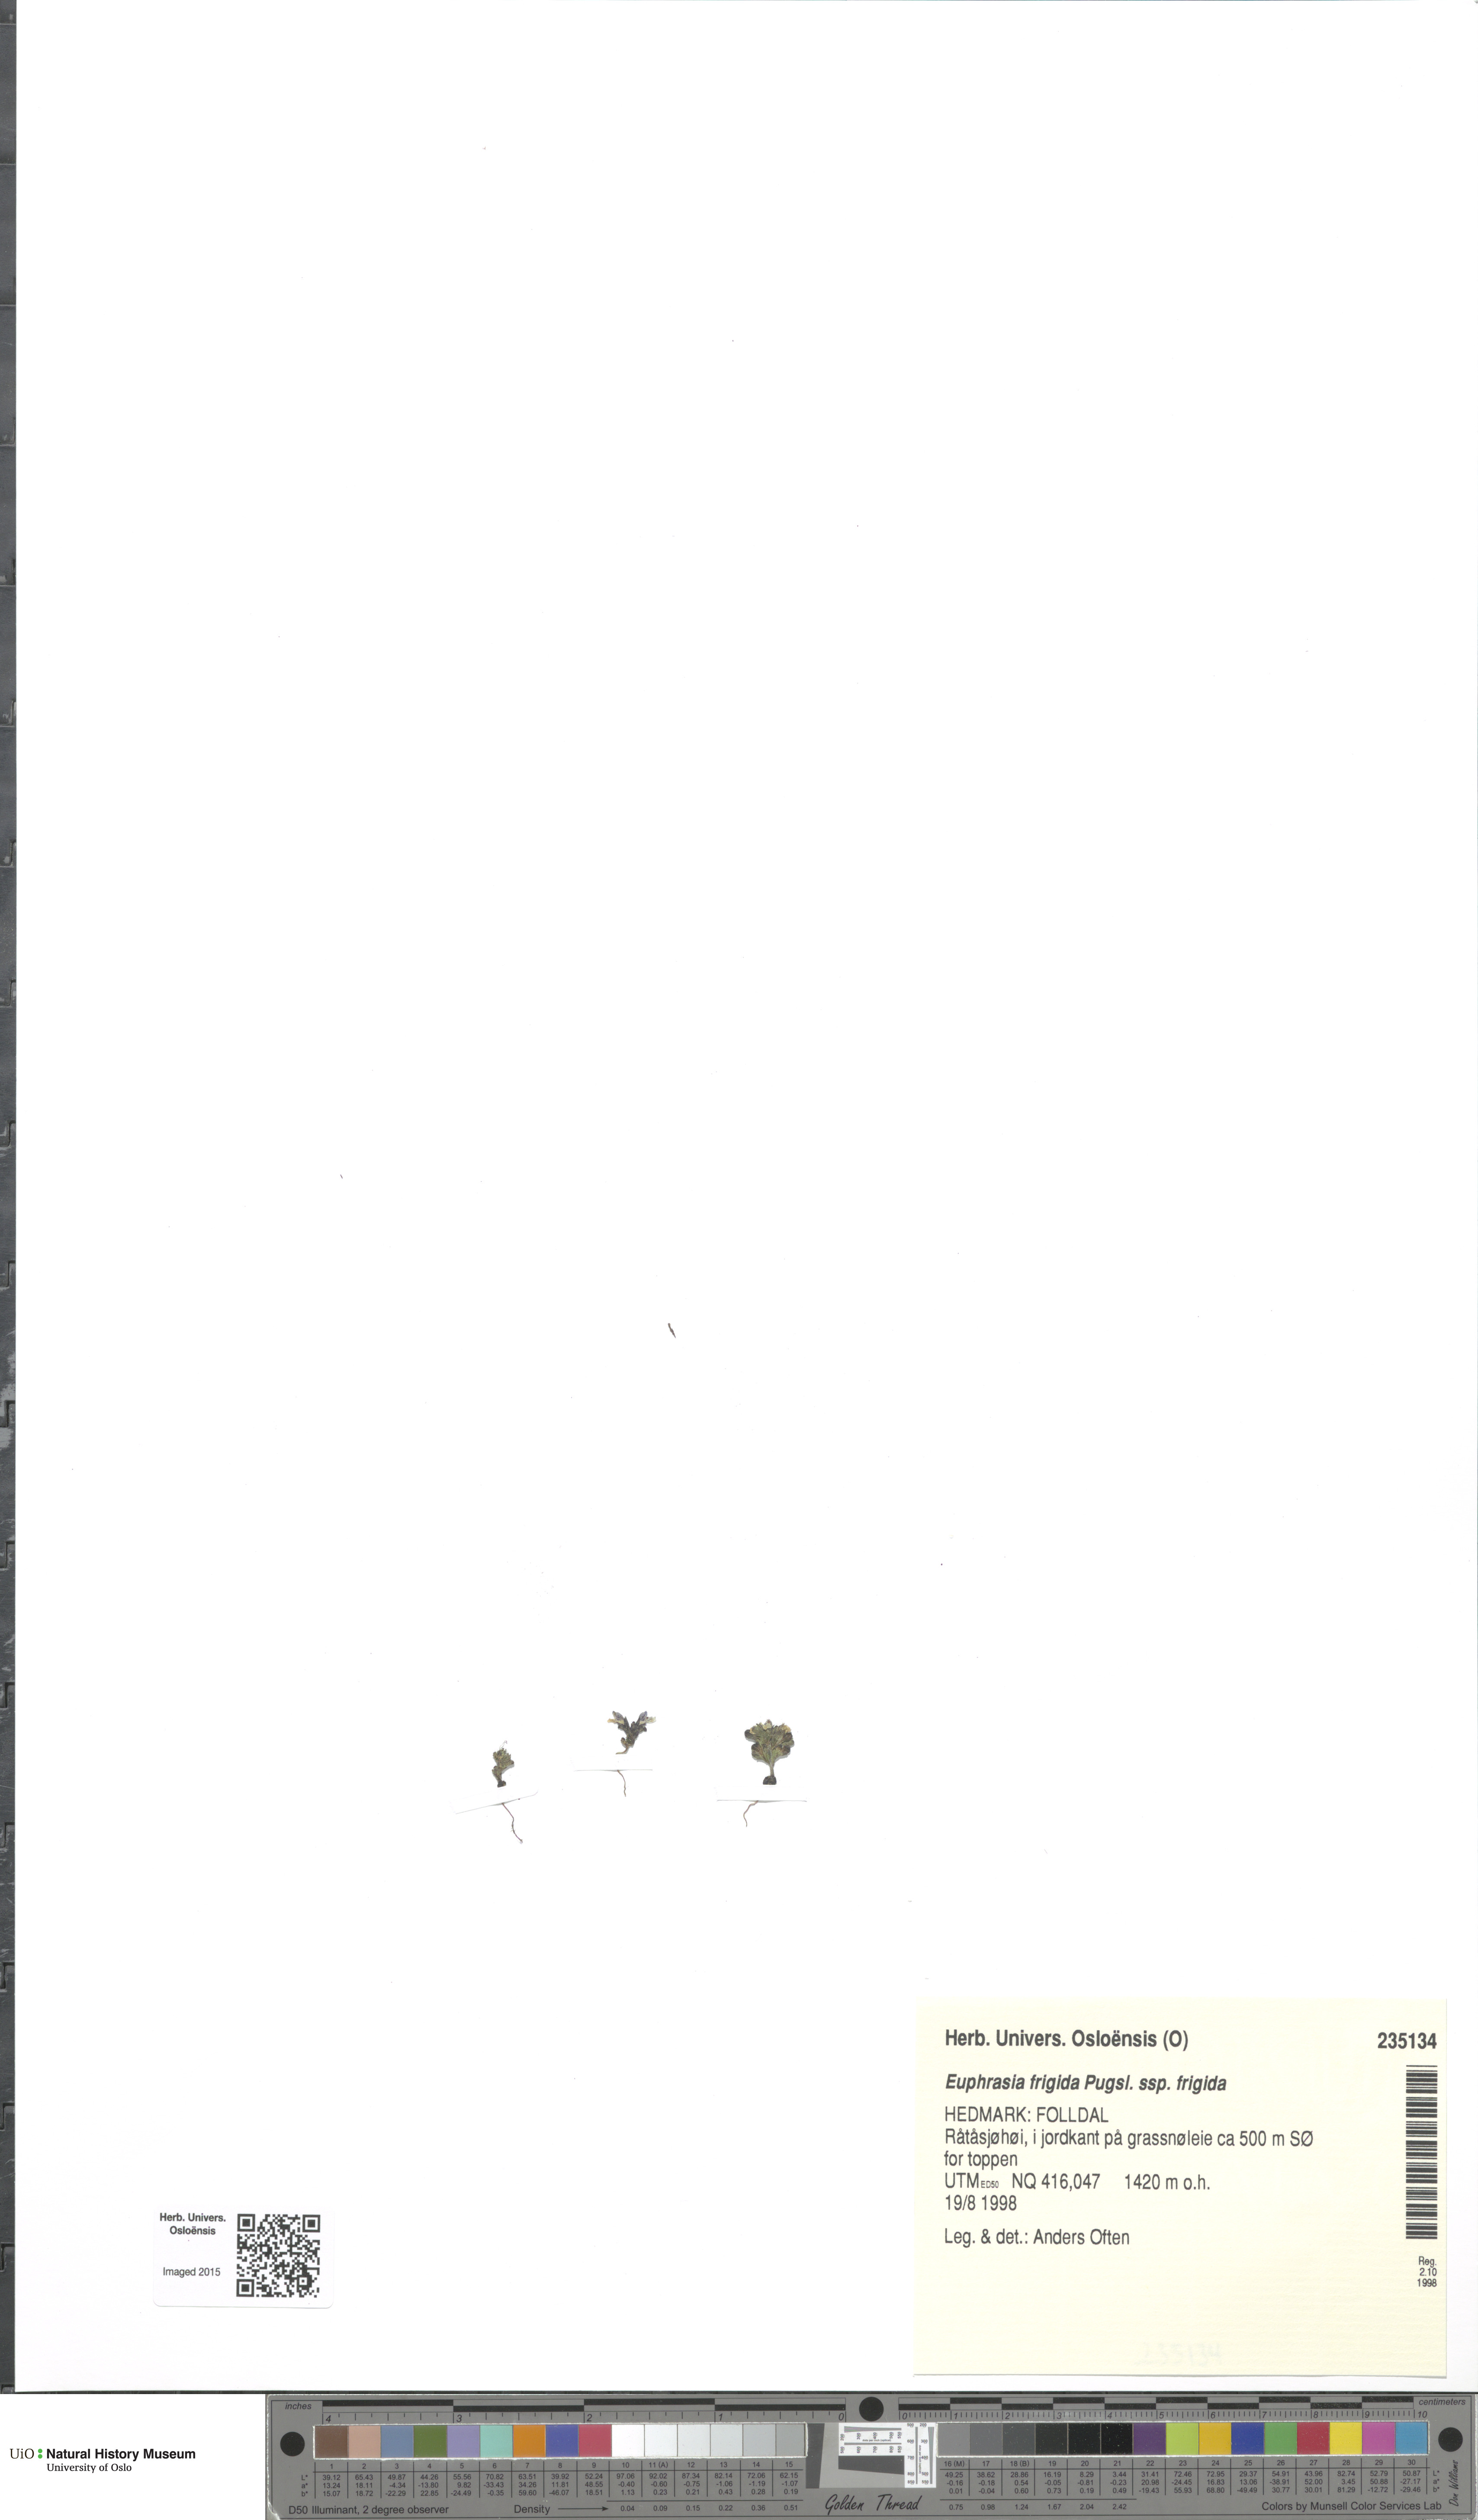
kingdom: Plantae
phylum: Tracheophyta
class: Magnoliopsida
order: Lamiales
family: Orobanchaceae
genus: Euphrasia
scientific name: Euphrasia wettsteinii
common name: Wettstein's eyebright
